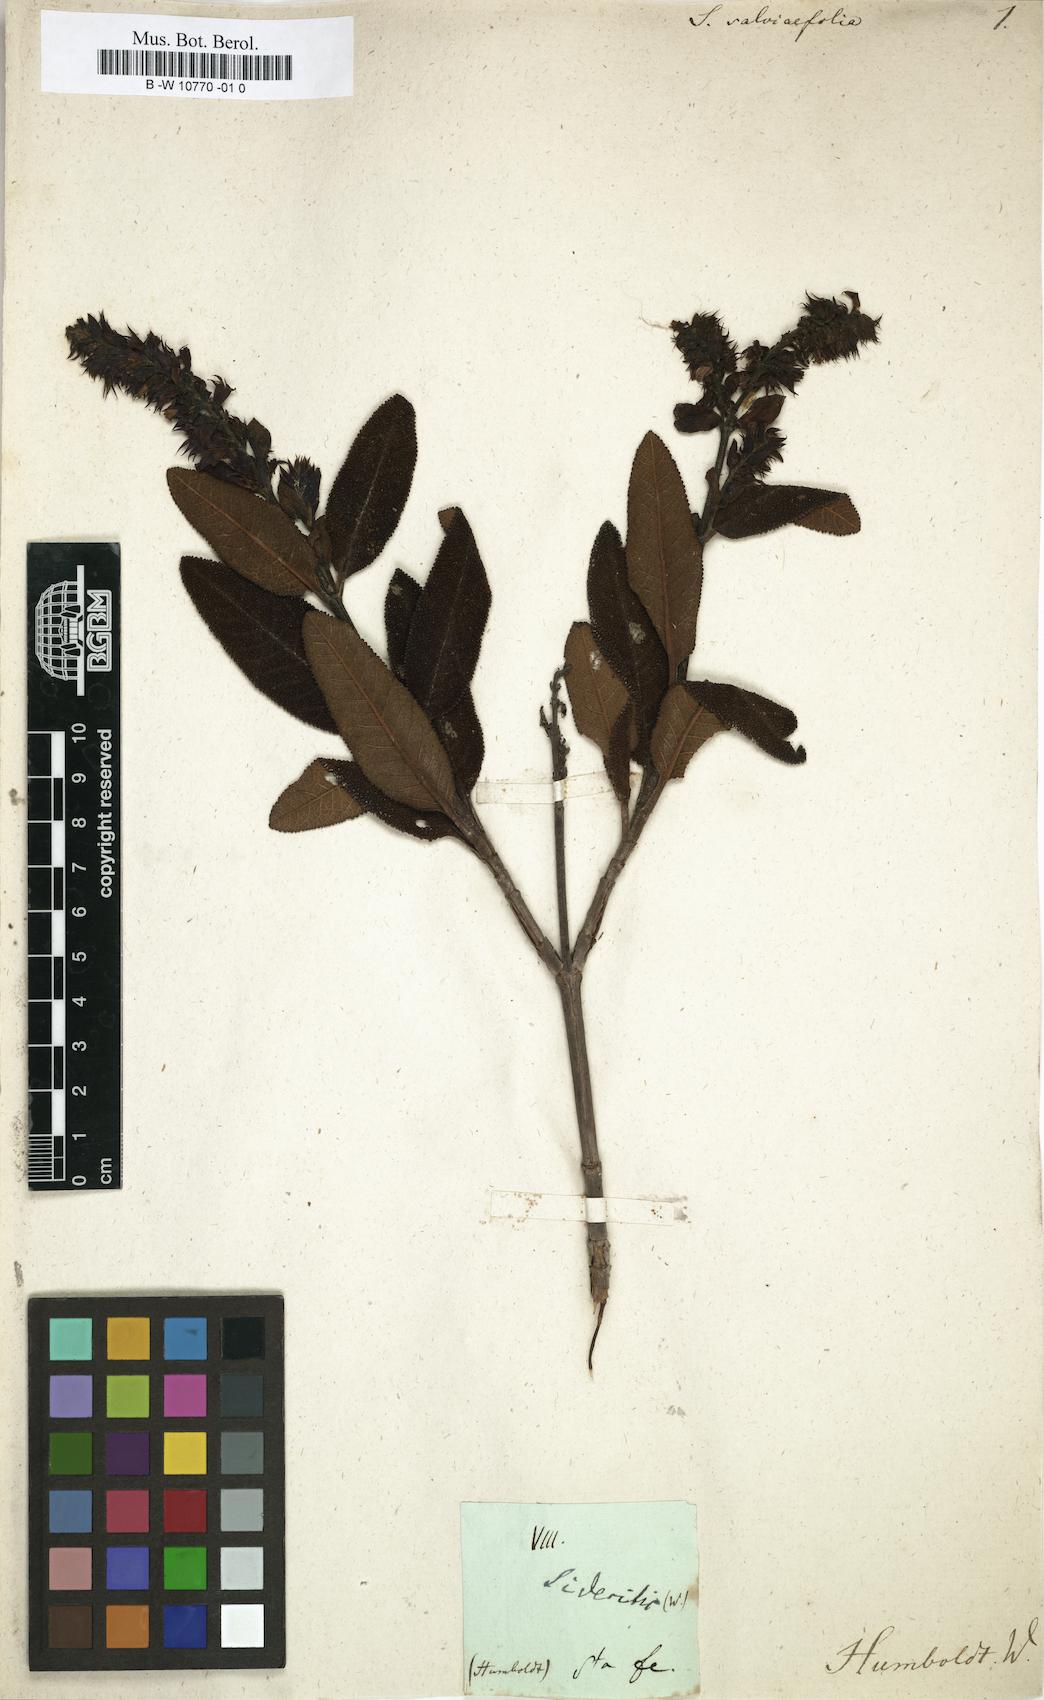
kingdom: Plantae
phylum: Tracheophyta
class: Magnoliopsida
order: Lamiales
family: Lamiaceae
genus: Lepechinia
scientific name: Lepechinia salviifolia
